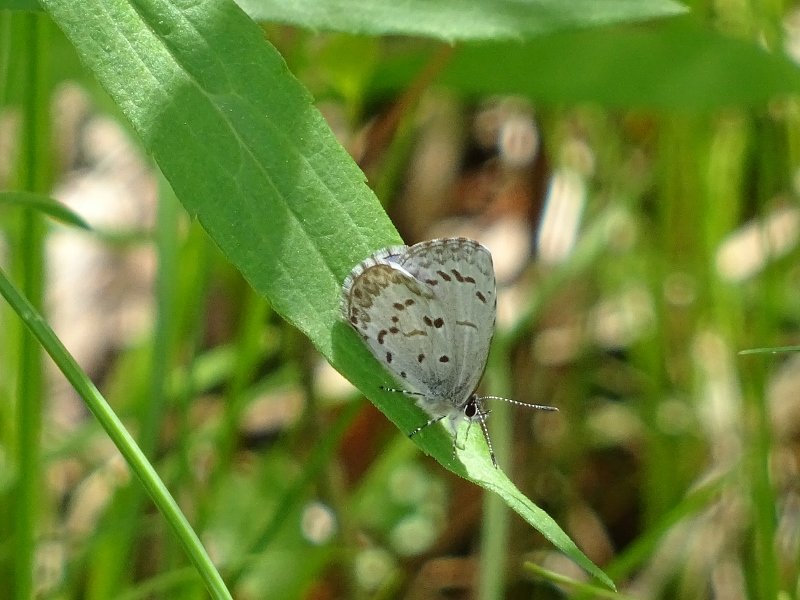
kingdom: Animalia
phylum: Arthropoda
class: Insecta
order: Lepidoptera
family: Lycaenidae
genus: Celastrina
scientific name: Celastrina
